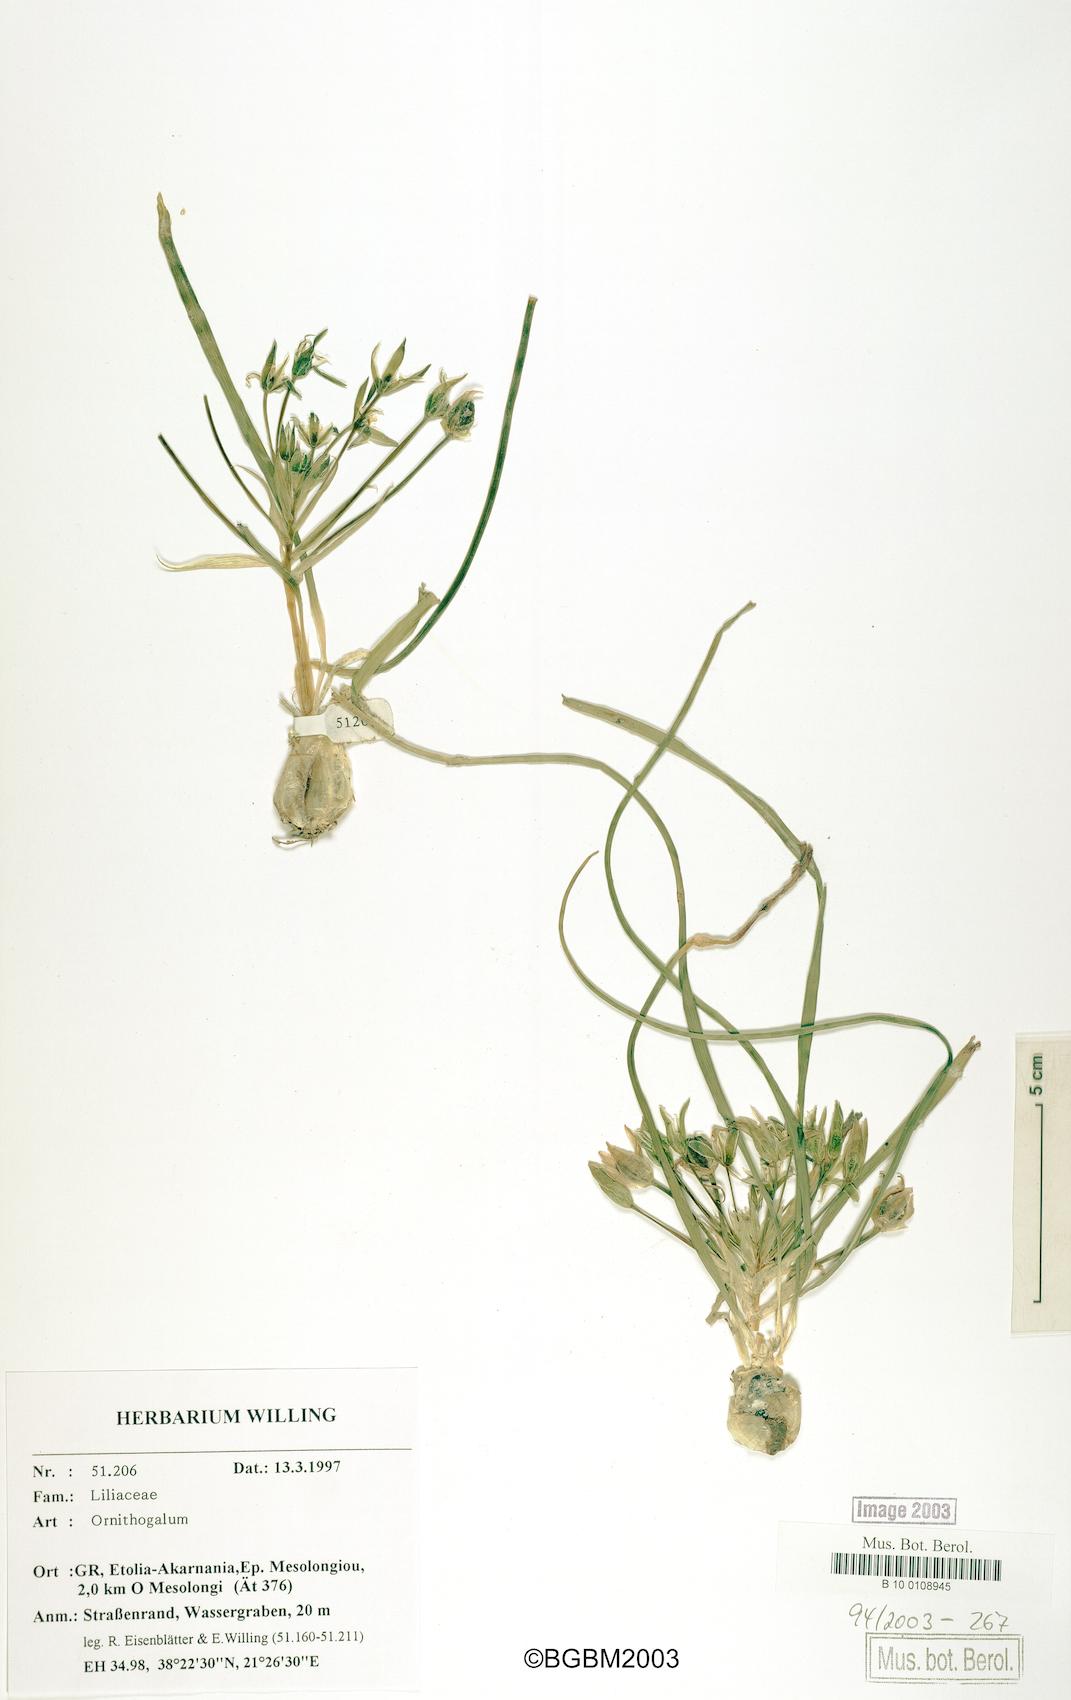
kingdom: Plantae
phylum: Tracheophyta
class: Liliopsida
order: Asparagales
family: Asparagaceae
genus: Ornithogalum
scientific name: Ornithogalum
